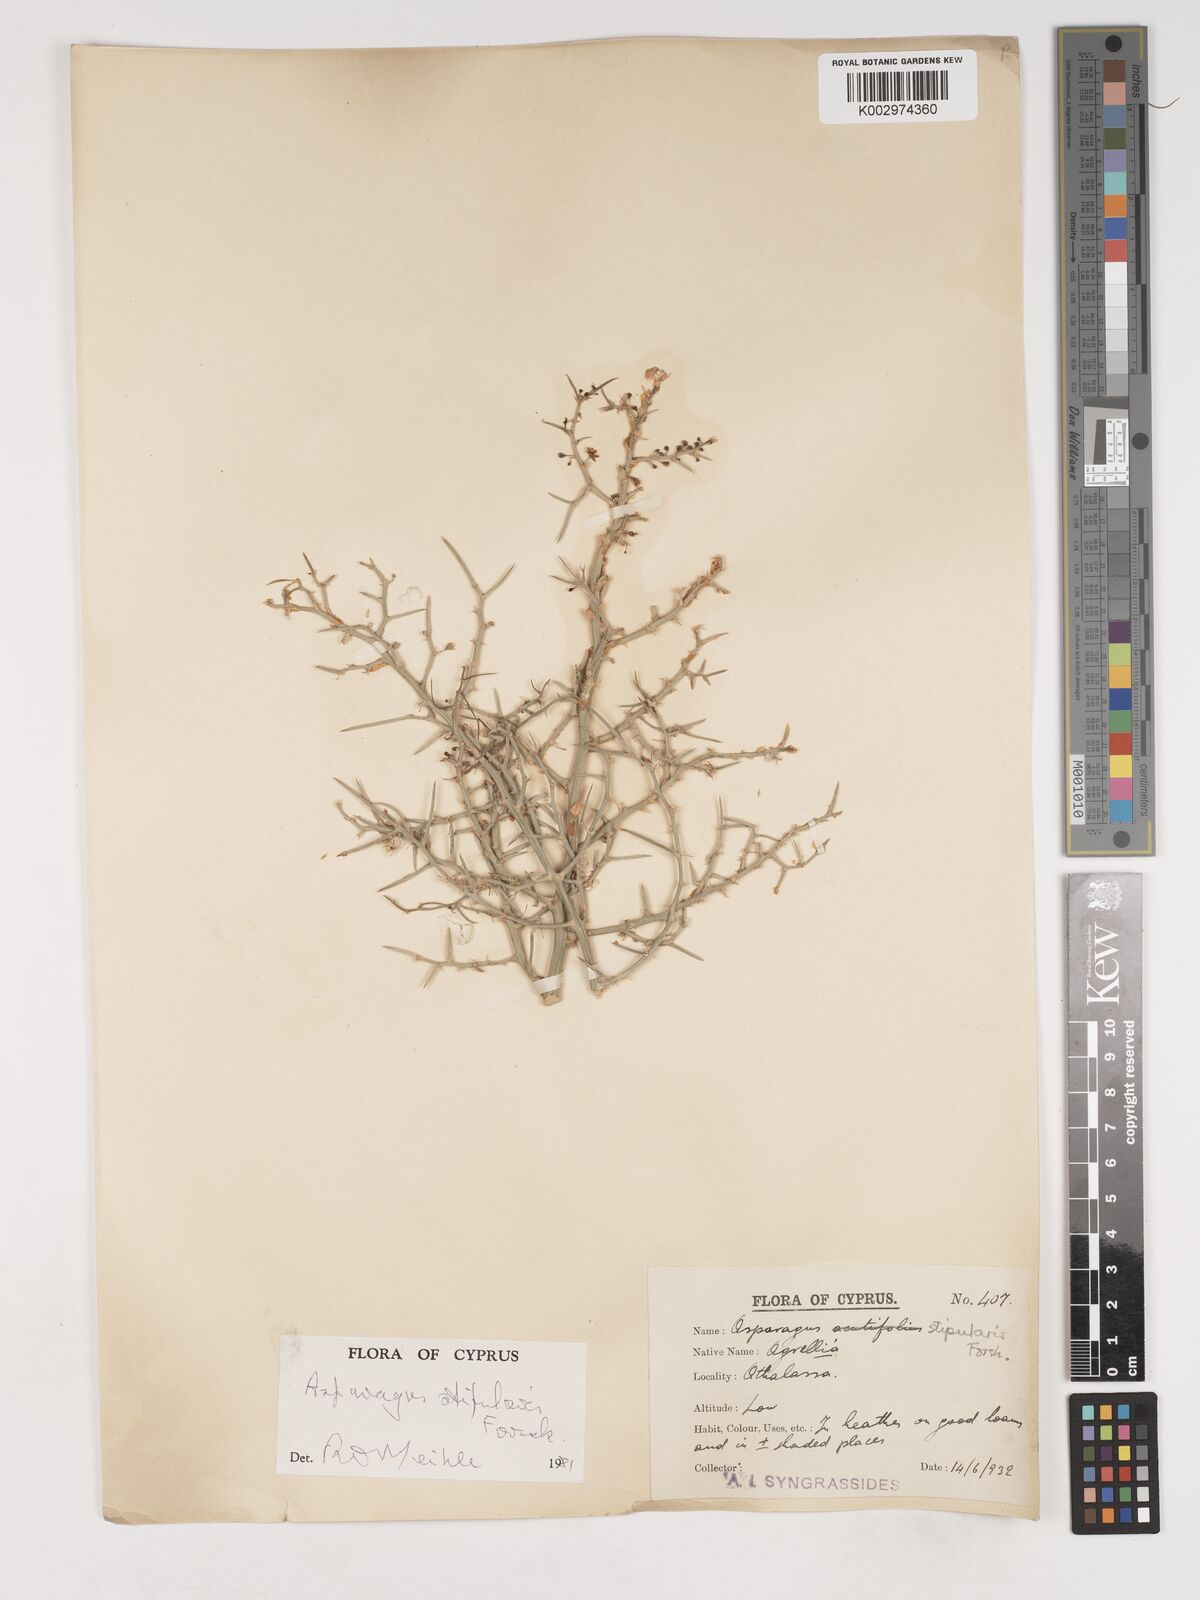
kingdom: Plantae
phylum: Tracheophyta
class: Liliopsida
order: Asparagales
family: Asparagaceae
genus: Asparagus
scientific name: Asparagus horridus
